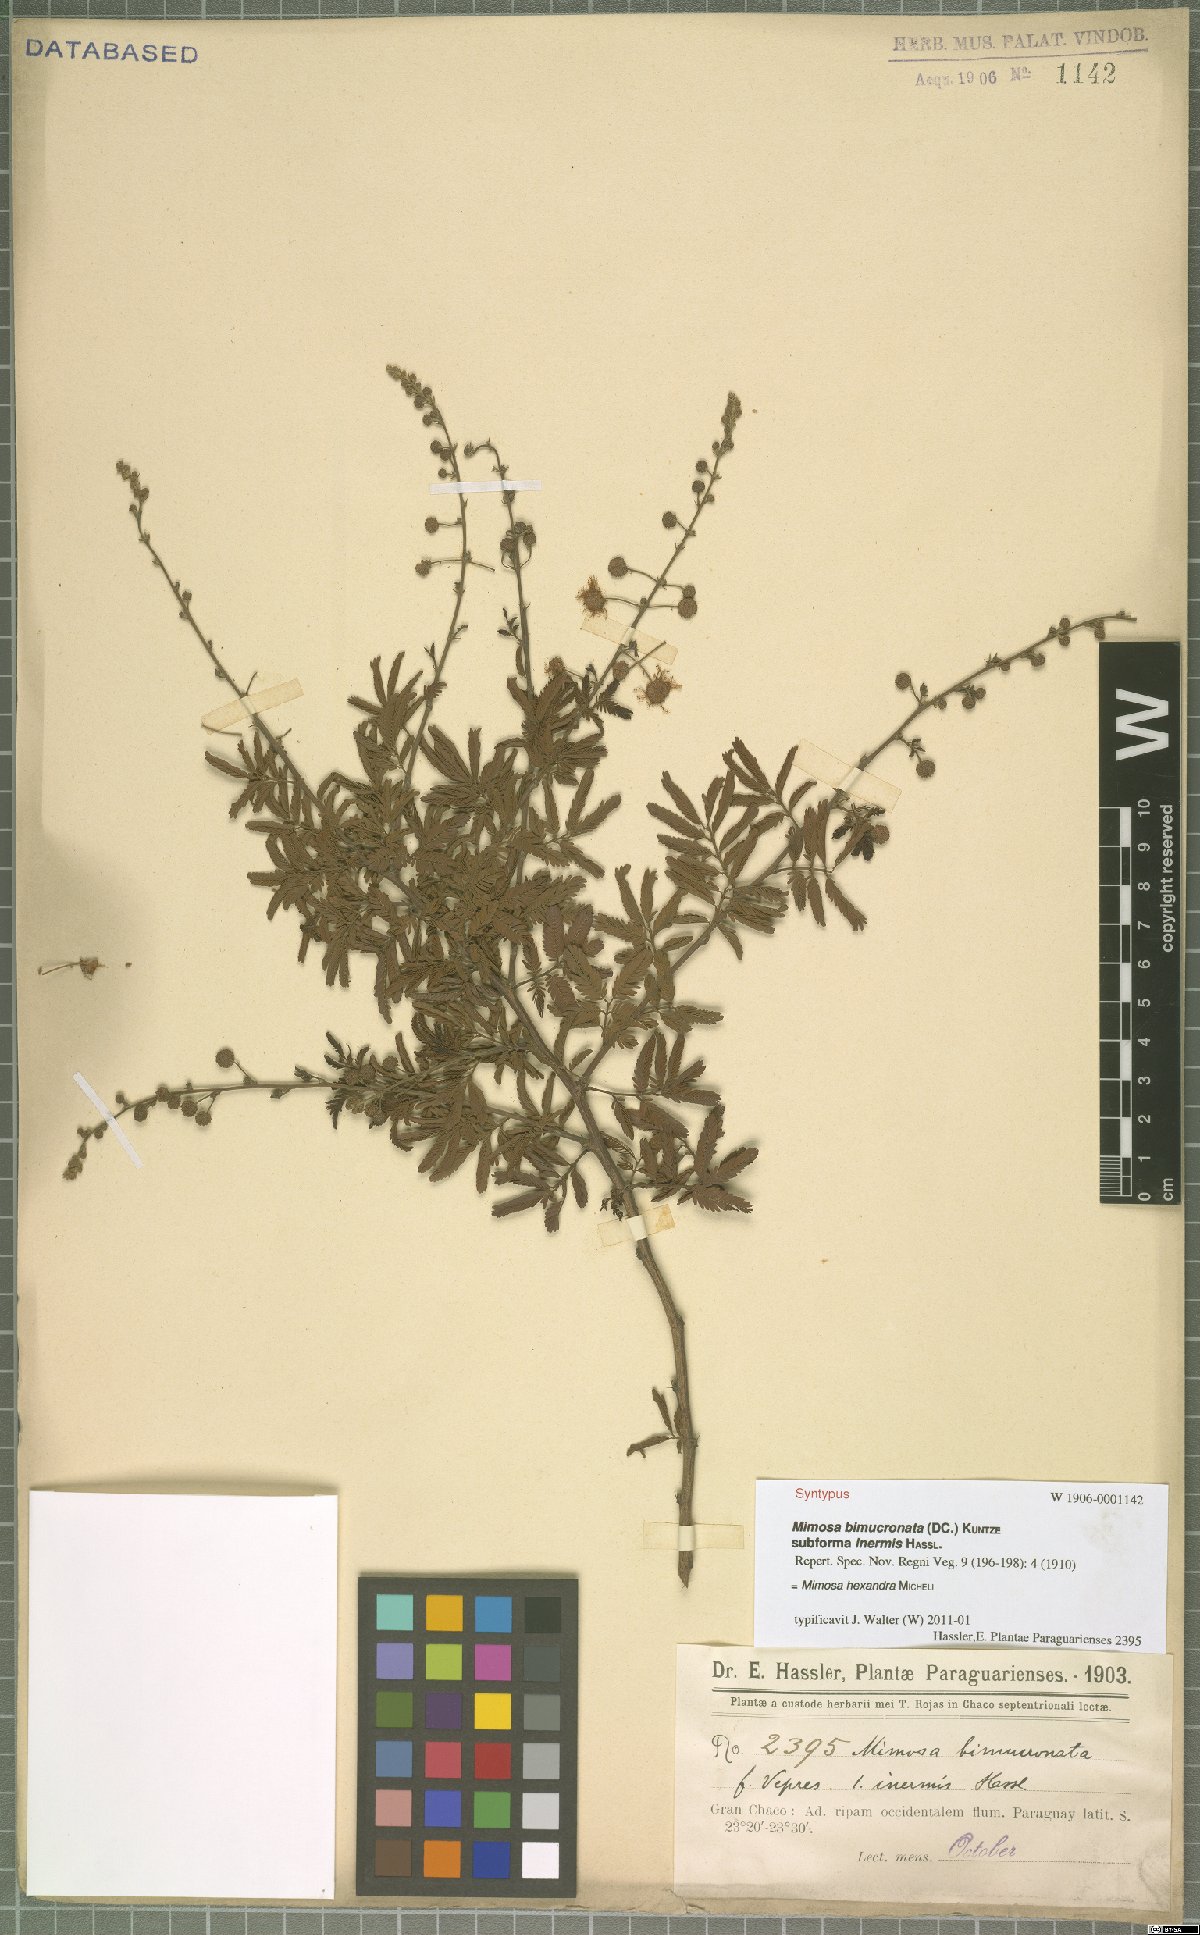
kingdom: Plantae
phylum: Tracheophyta
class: Magnoliopsida
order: Fabales
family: Fabaceae
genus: Mimosa
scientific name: Mimosa hexandra
